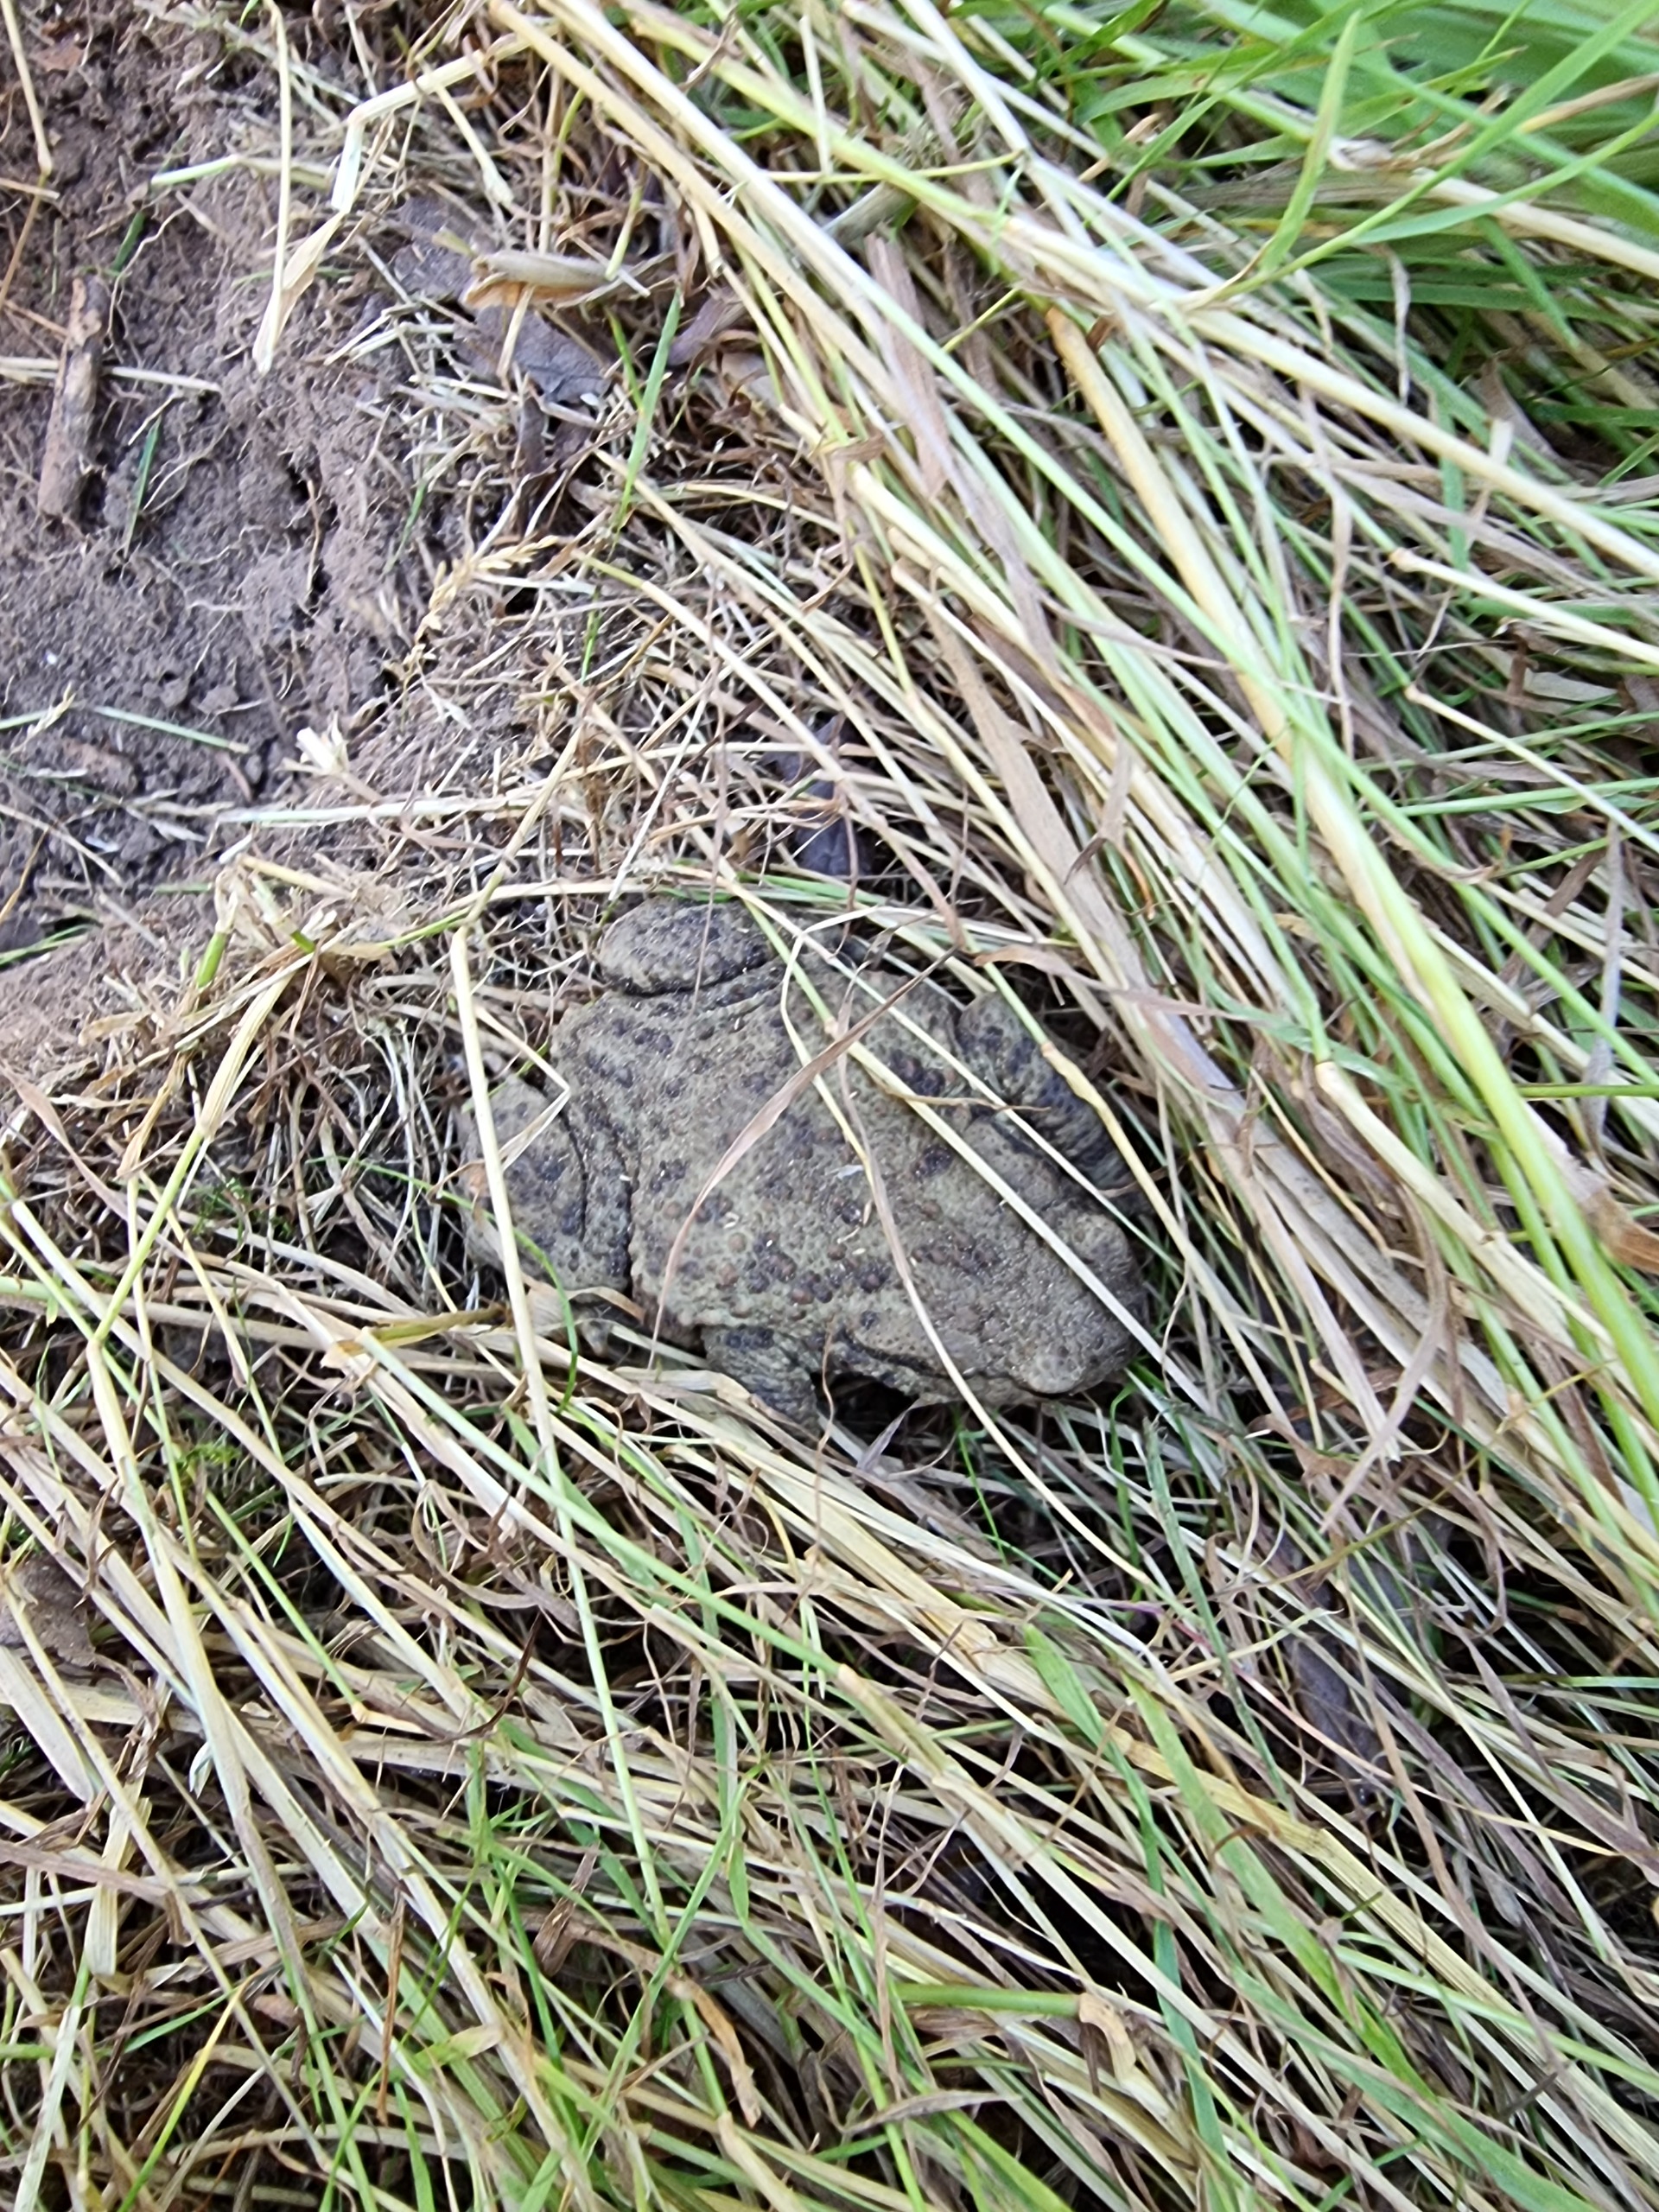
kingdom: Animalia
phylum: Chordata
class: Amphibia
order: Anura
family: Bufonidae
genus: Bufo
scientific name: Bufo bufo
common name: Skrubtudse
